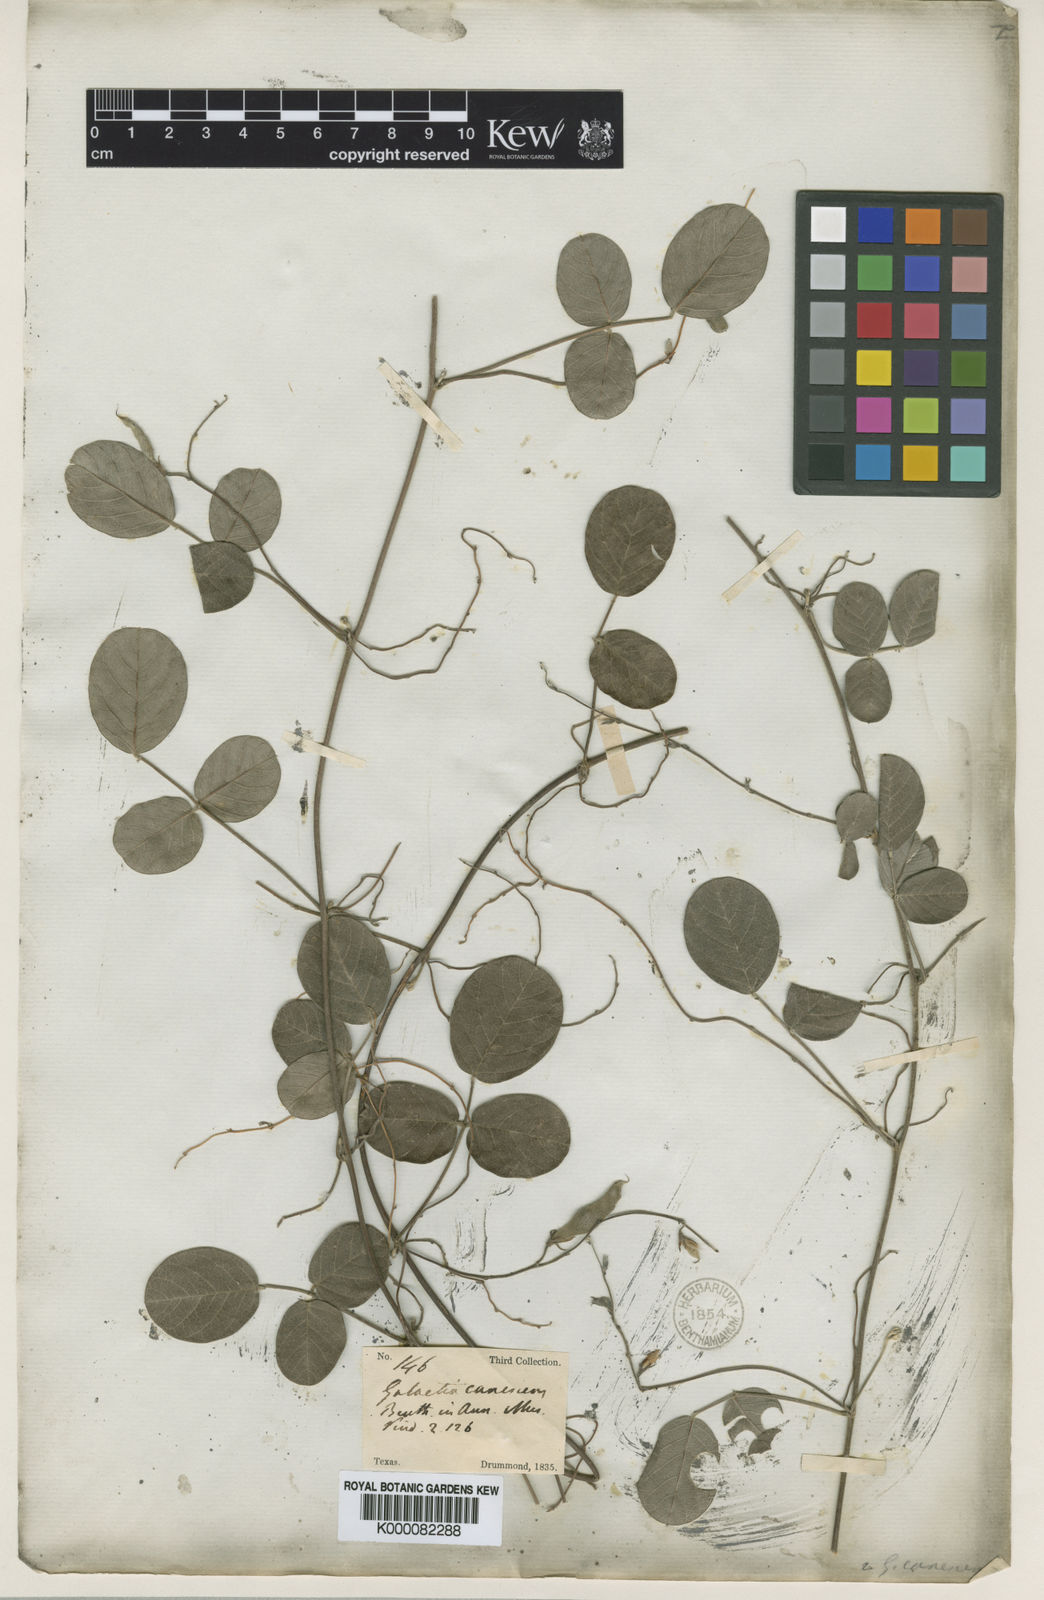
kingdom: Plantae
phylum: Tracheophyta
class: Magnoliopsida
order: Fabales
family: Fabaceae
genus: Galactia
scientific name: Galactia canescens
